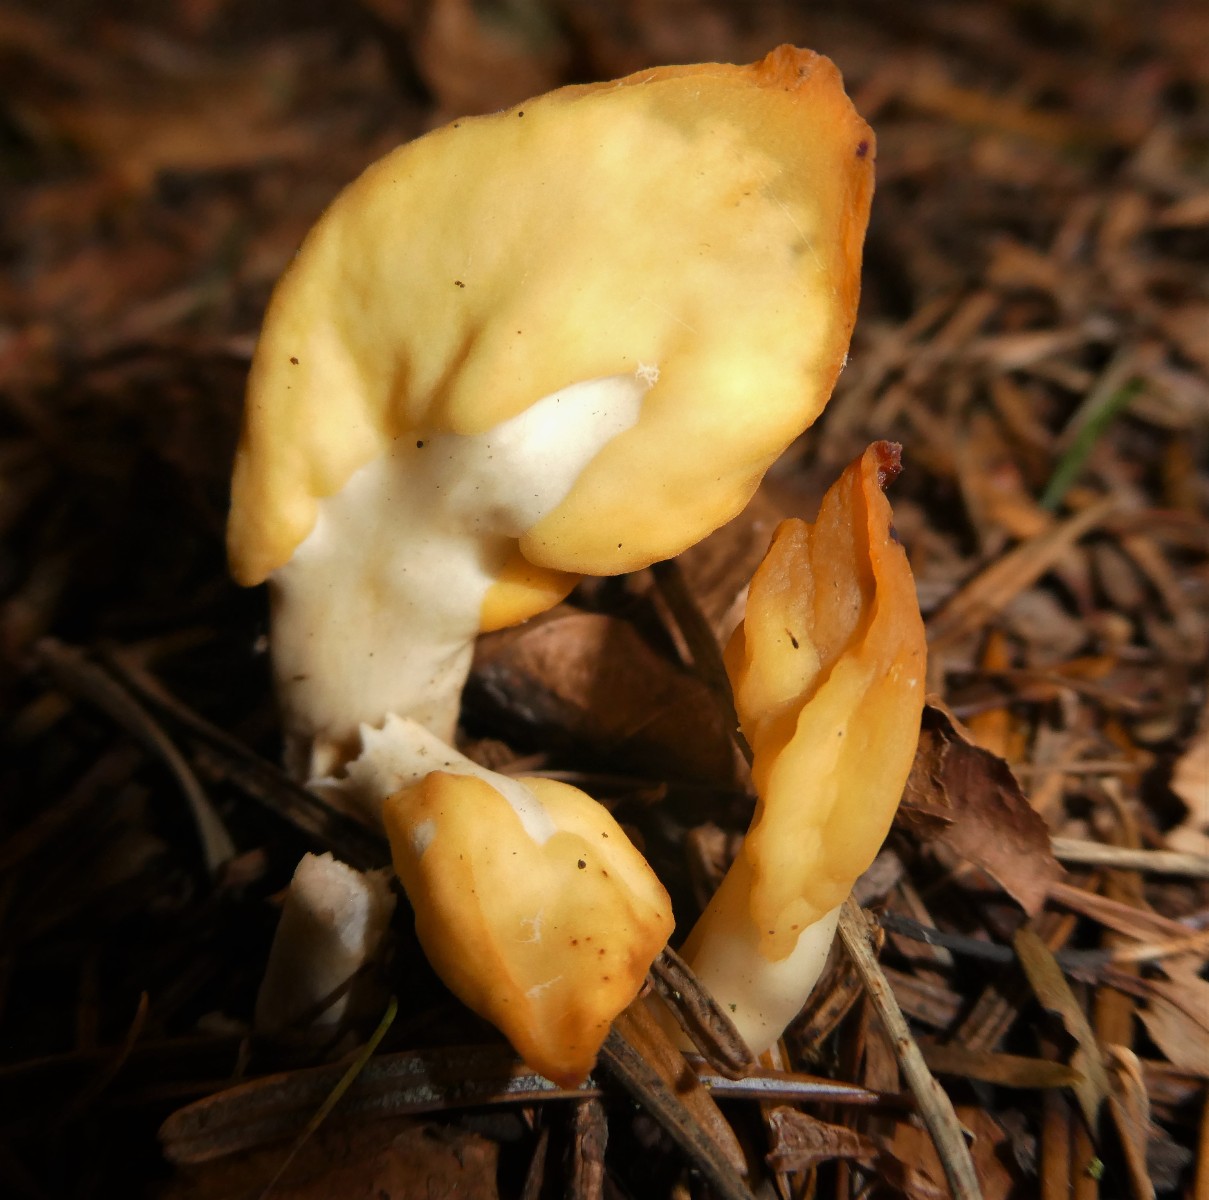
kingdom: Fungi
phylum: Ascomycota
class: Leotiomycetes
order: Rhytismatales
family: Cudoniaceae
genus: Spathularia
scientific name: Spathularia flavida
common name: gul spatelsvamp
